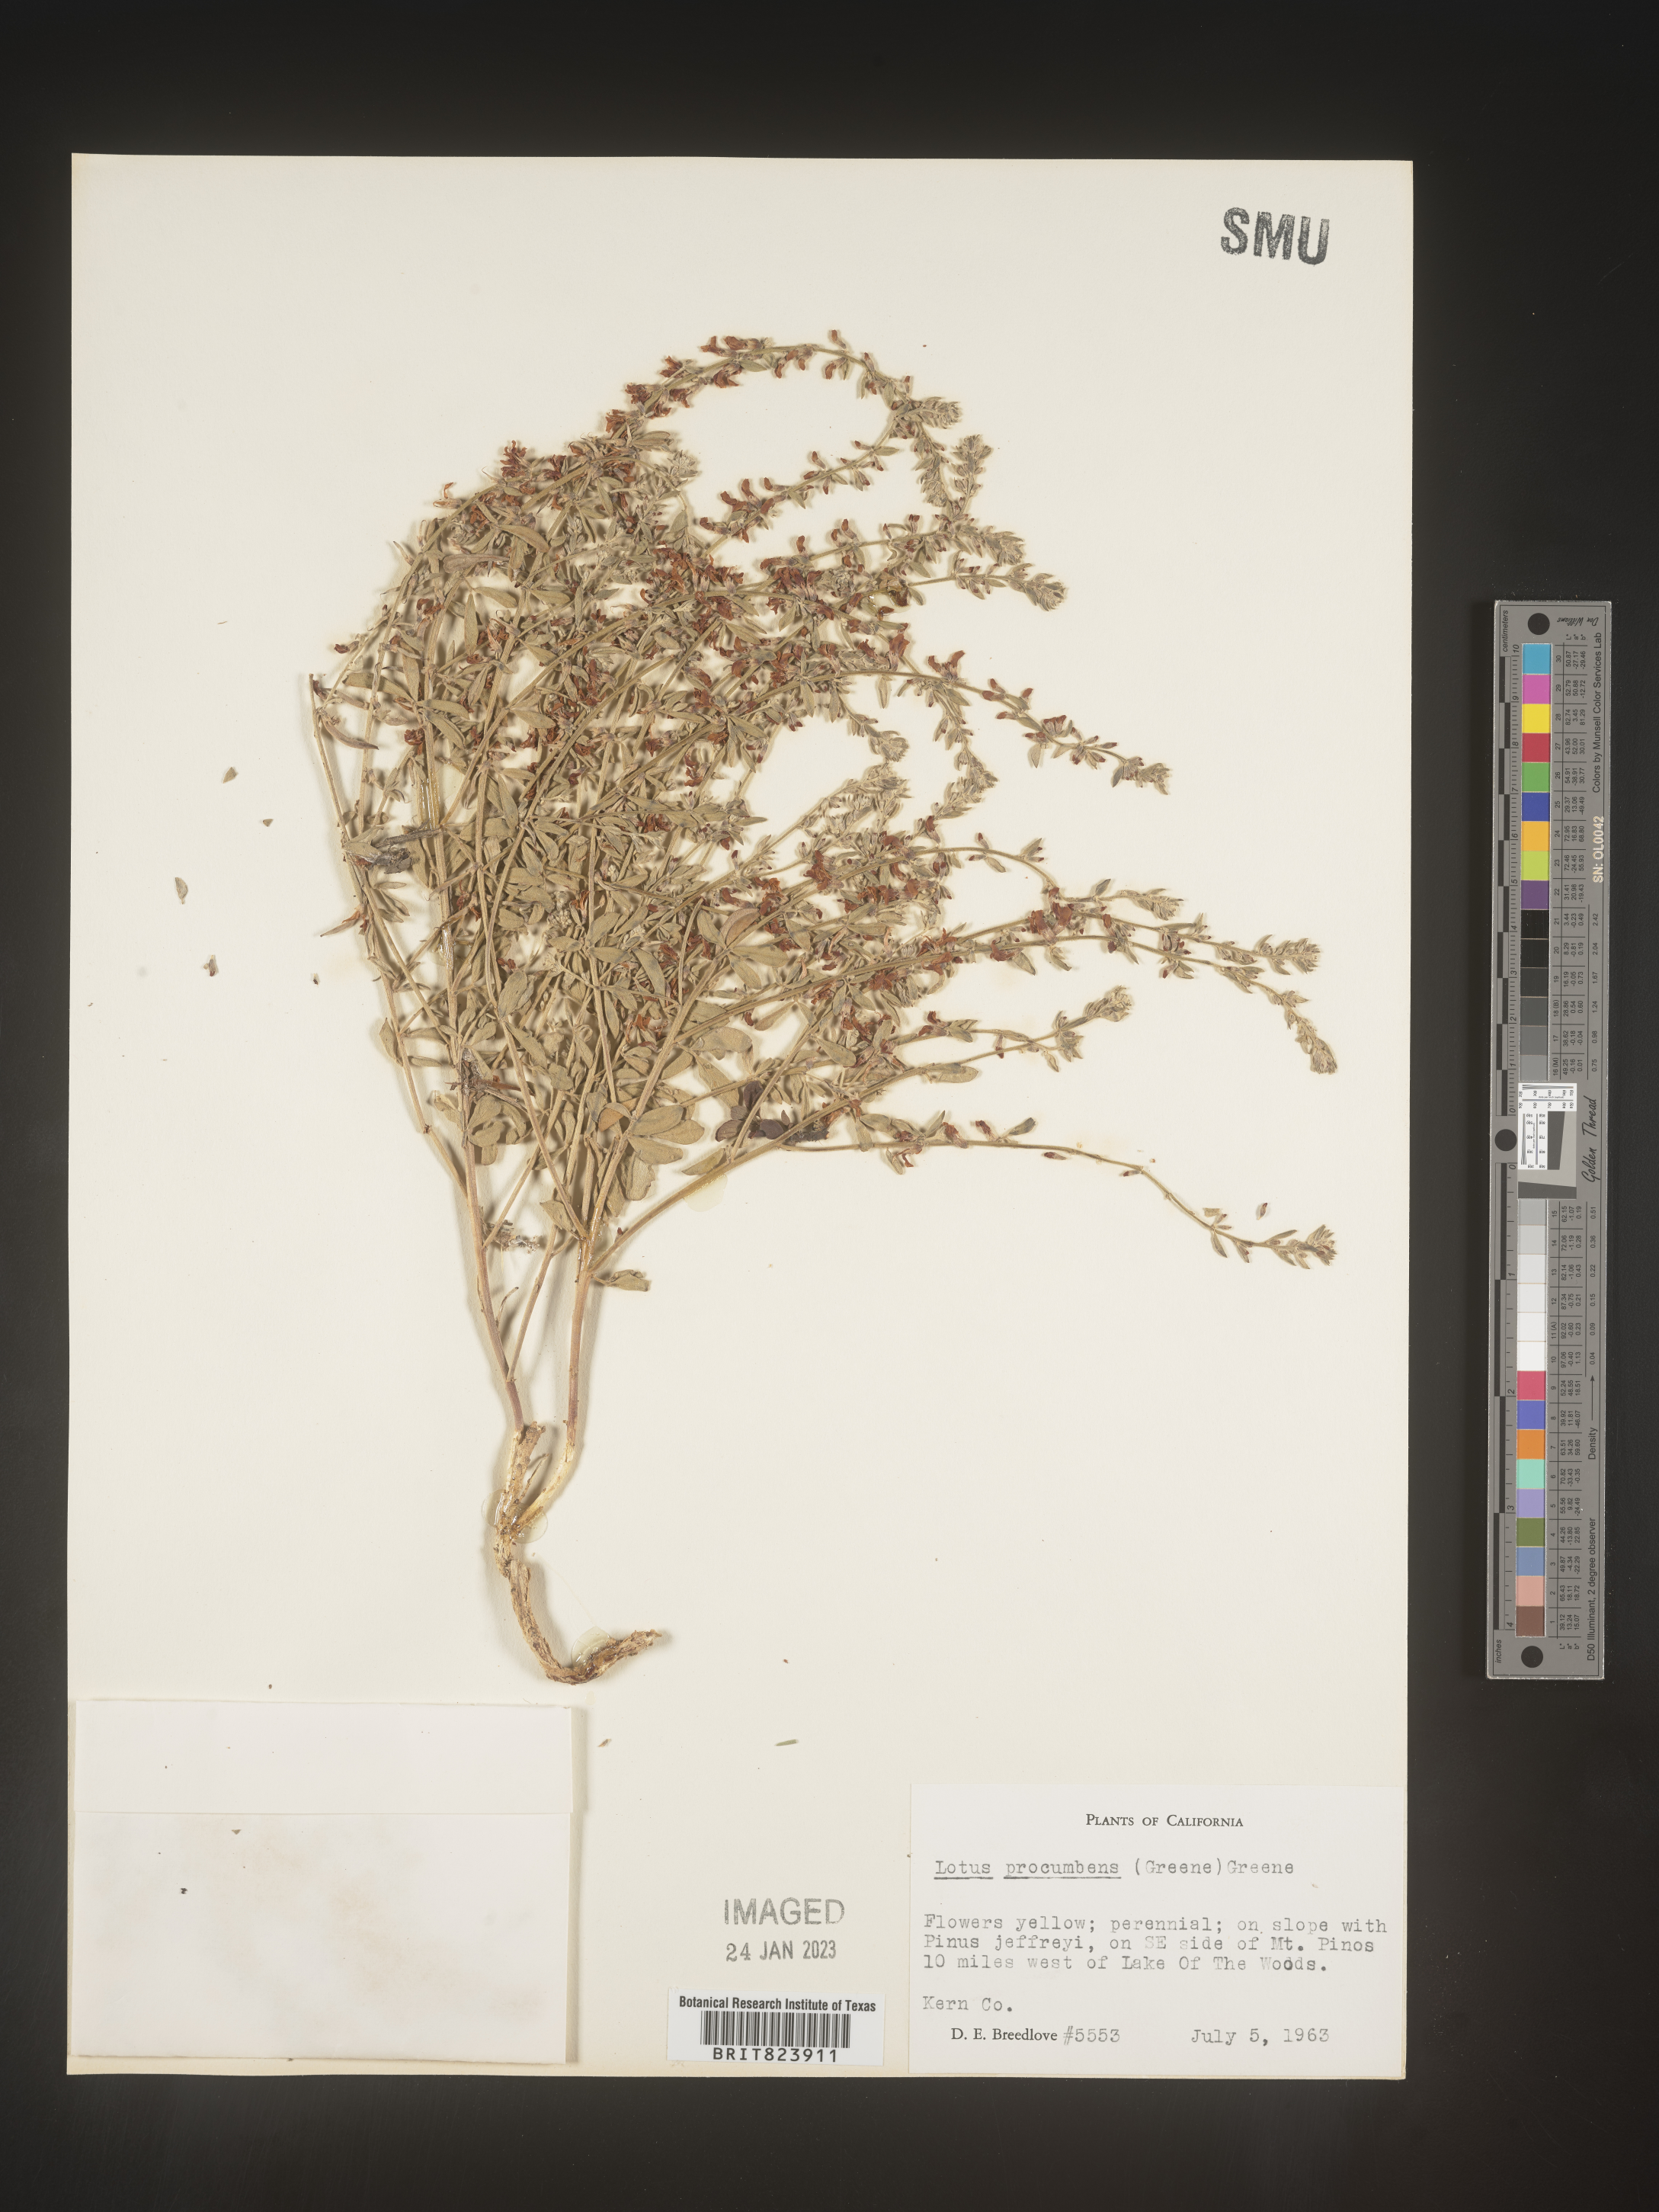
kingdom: Plantae
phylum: Tracheophyta
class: Magnoliopsida
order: Fabales
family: Fabaceae
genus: Lotus
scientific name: Lotus
